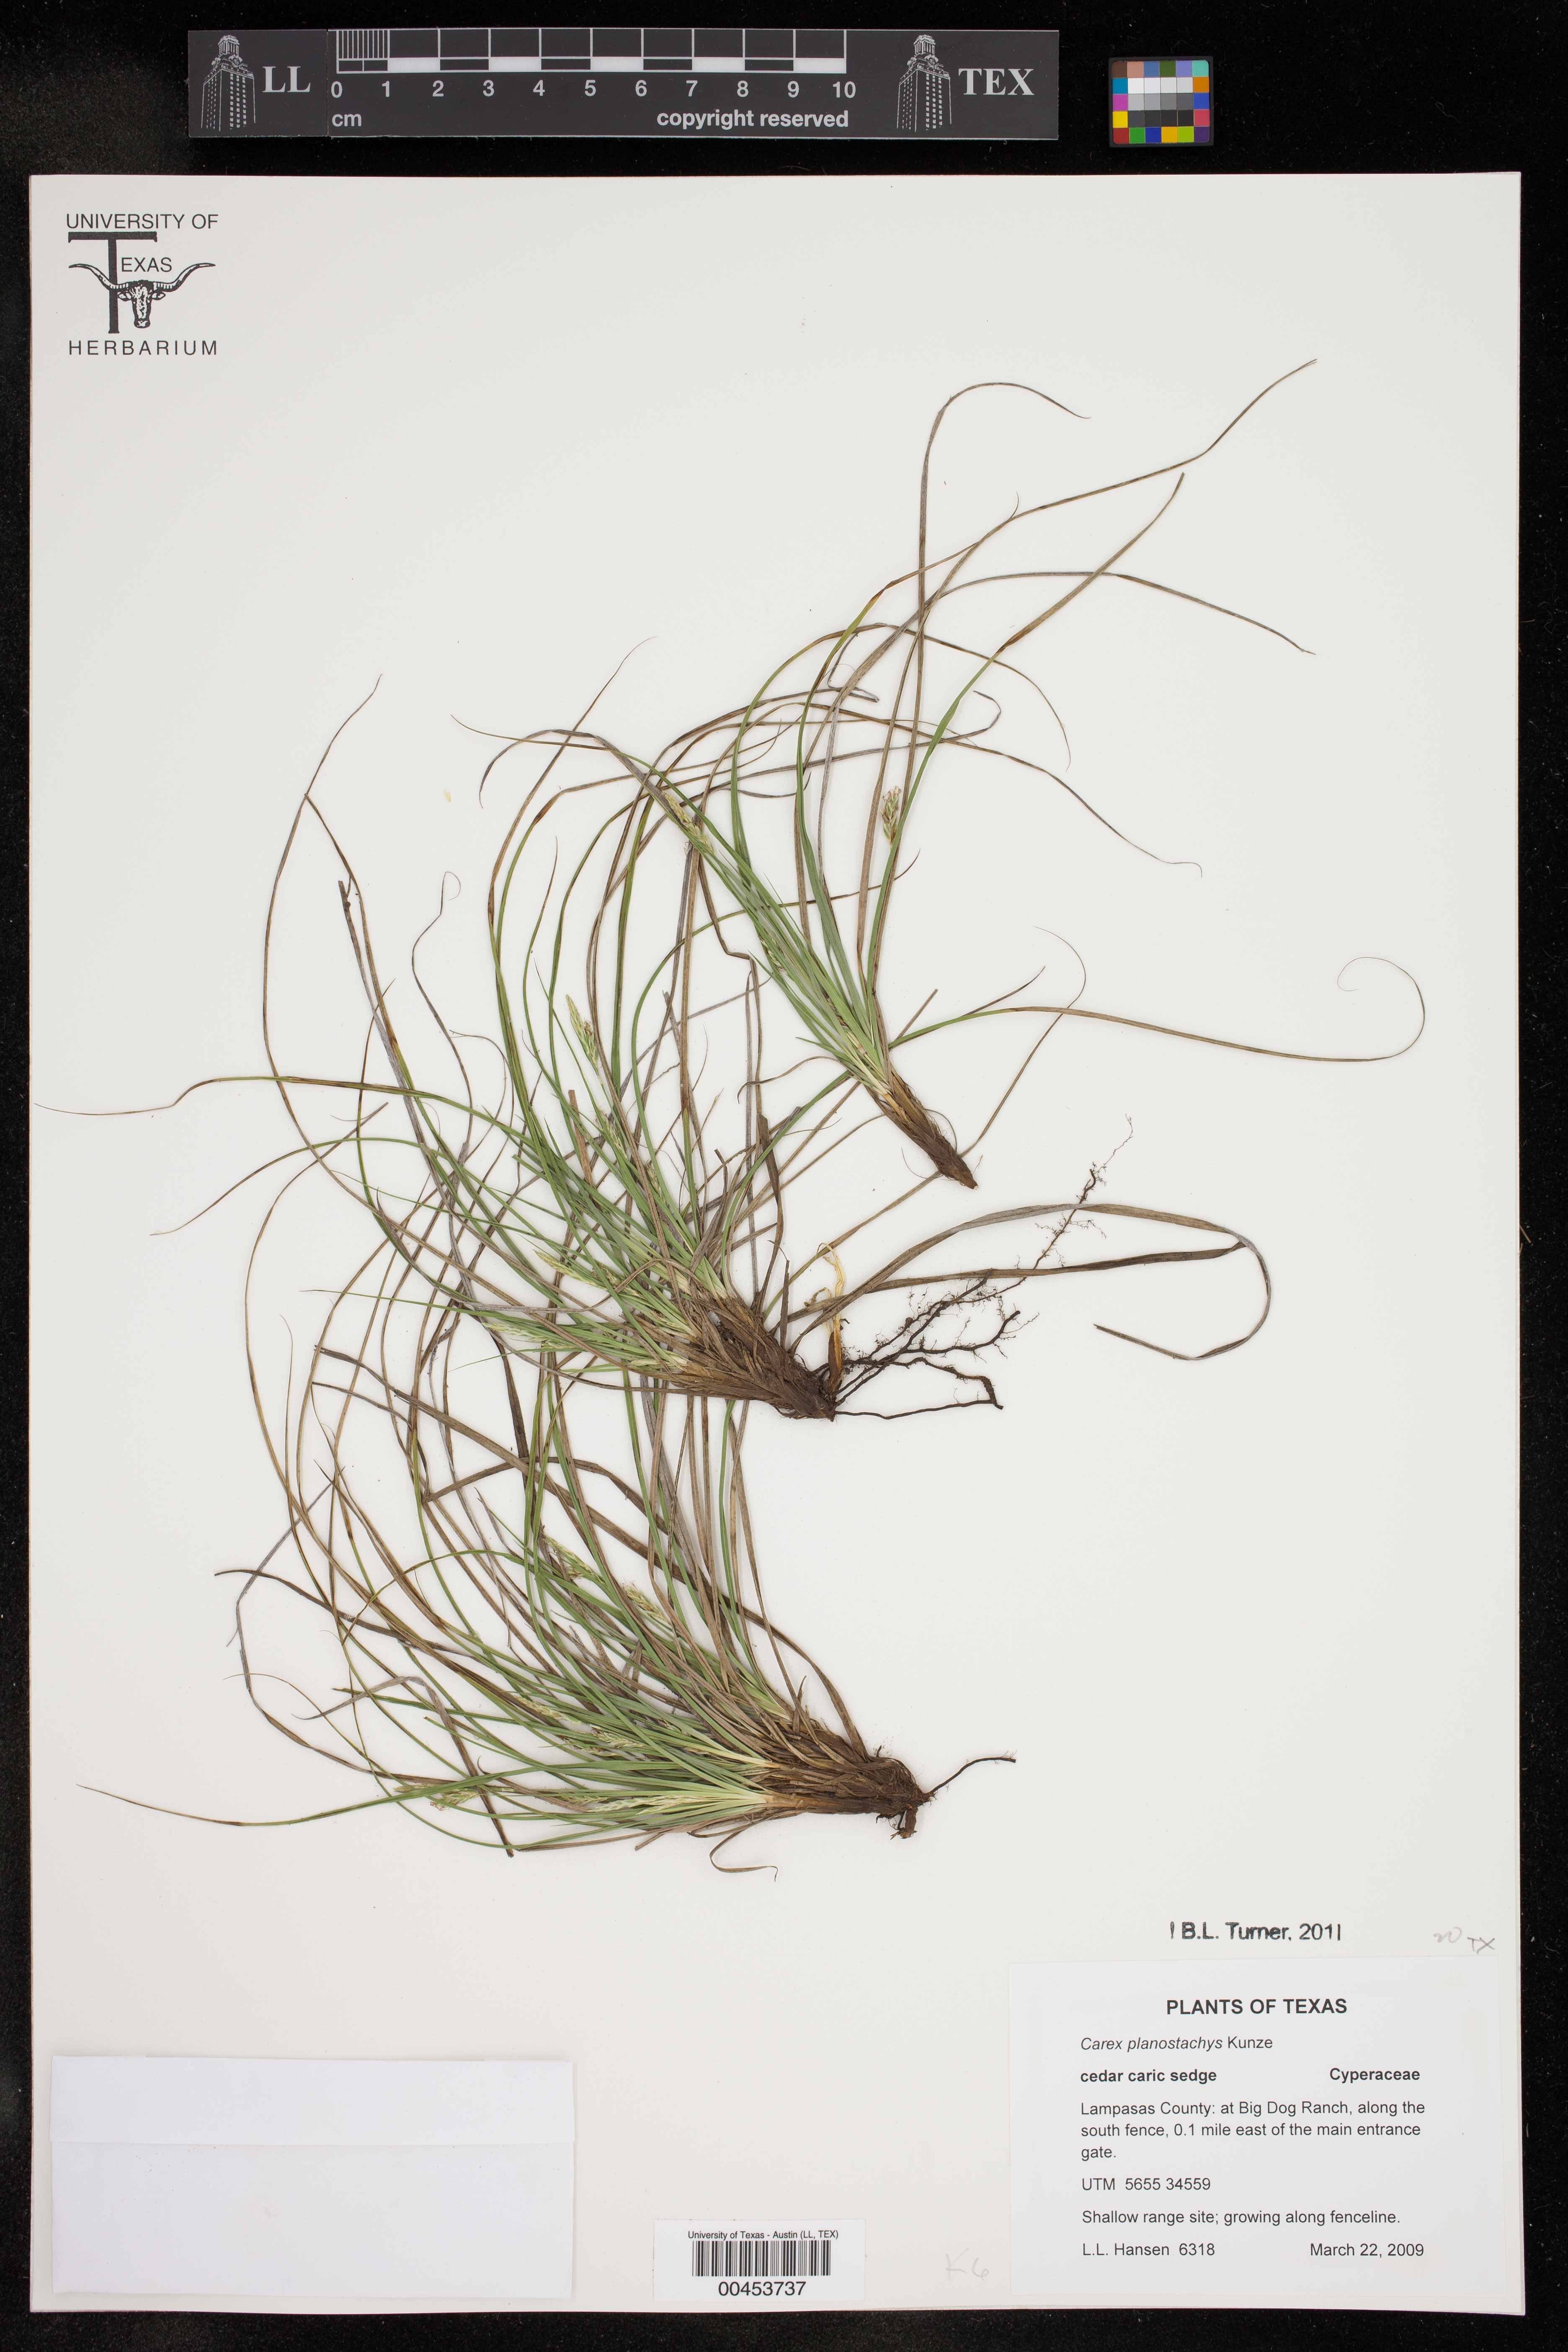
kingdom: Plantae
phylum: Tracheophyta
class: Liliopsida
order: Poales
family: Cyperaceae
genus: Carex
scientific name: Carex planostachys
